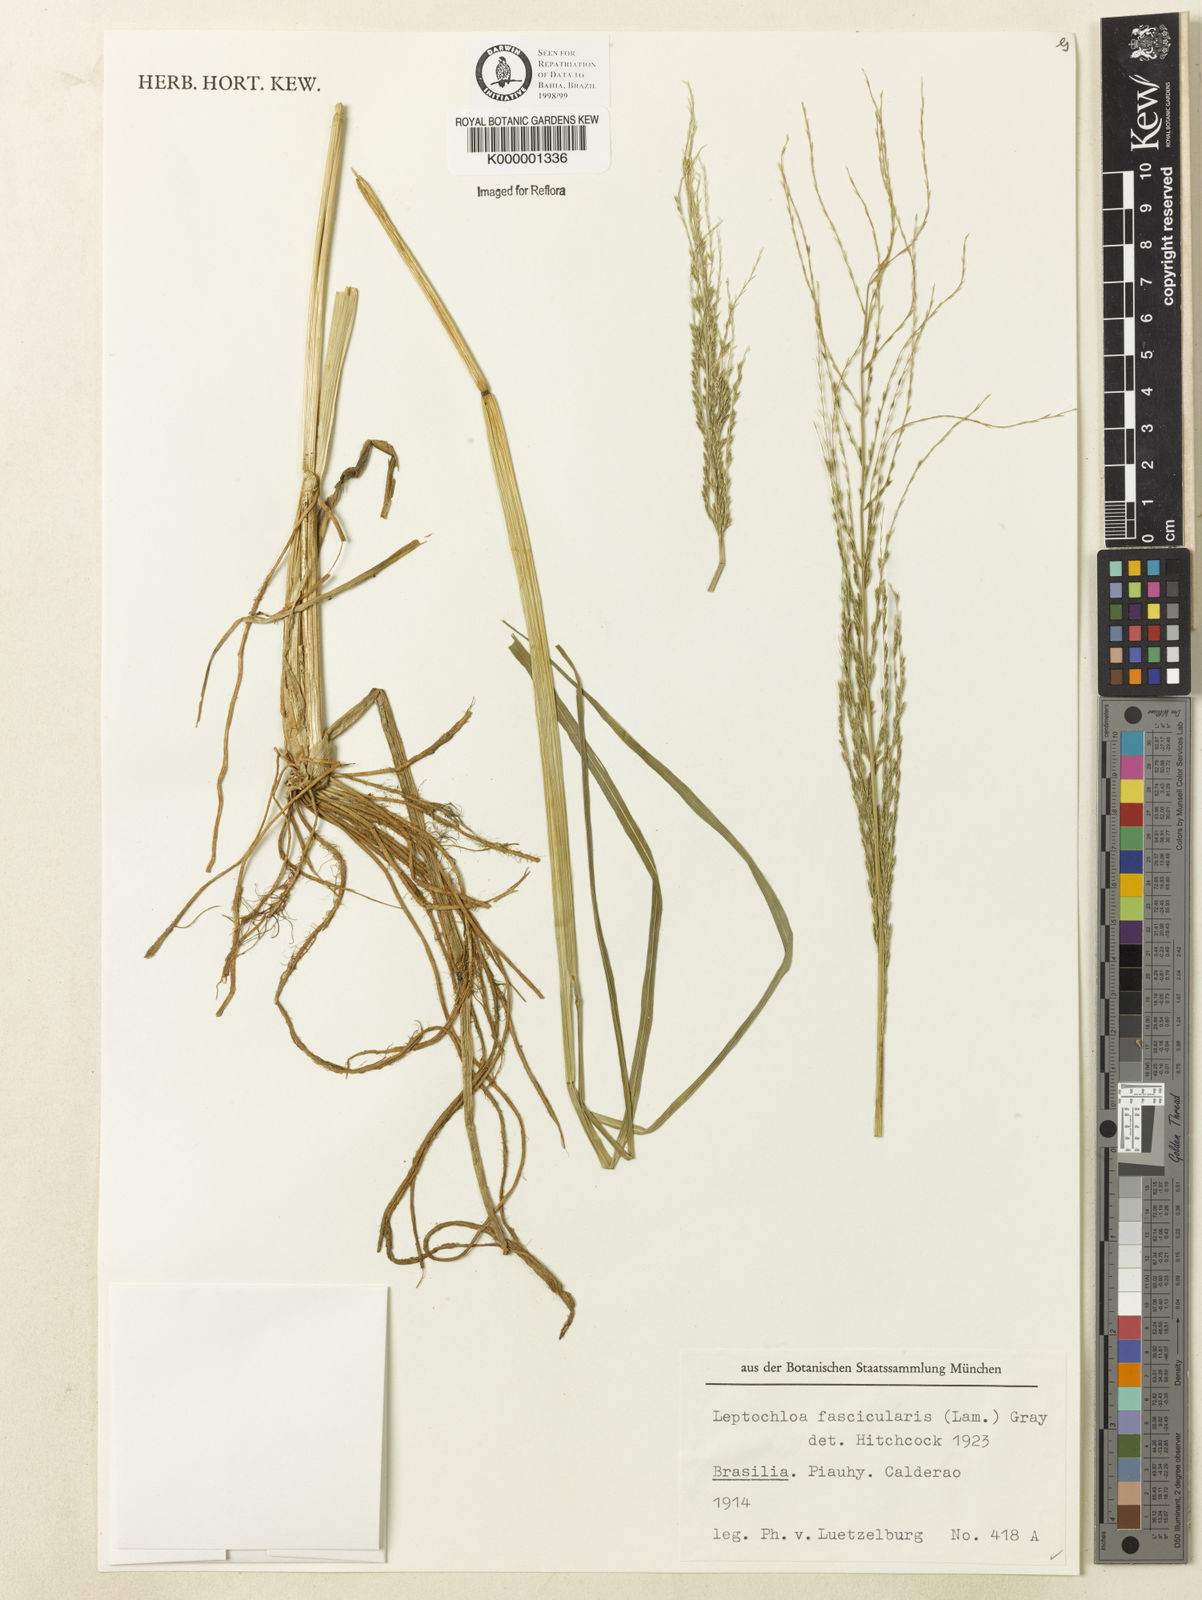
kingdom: Plantae
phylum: Tracheophyta
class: Liliopsida
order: Poales
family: Poaceae
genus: Diplachne
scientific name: Diplachne fusca
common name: Brown beetle grass
